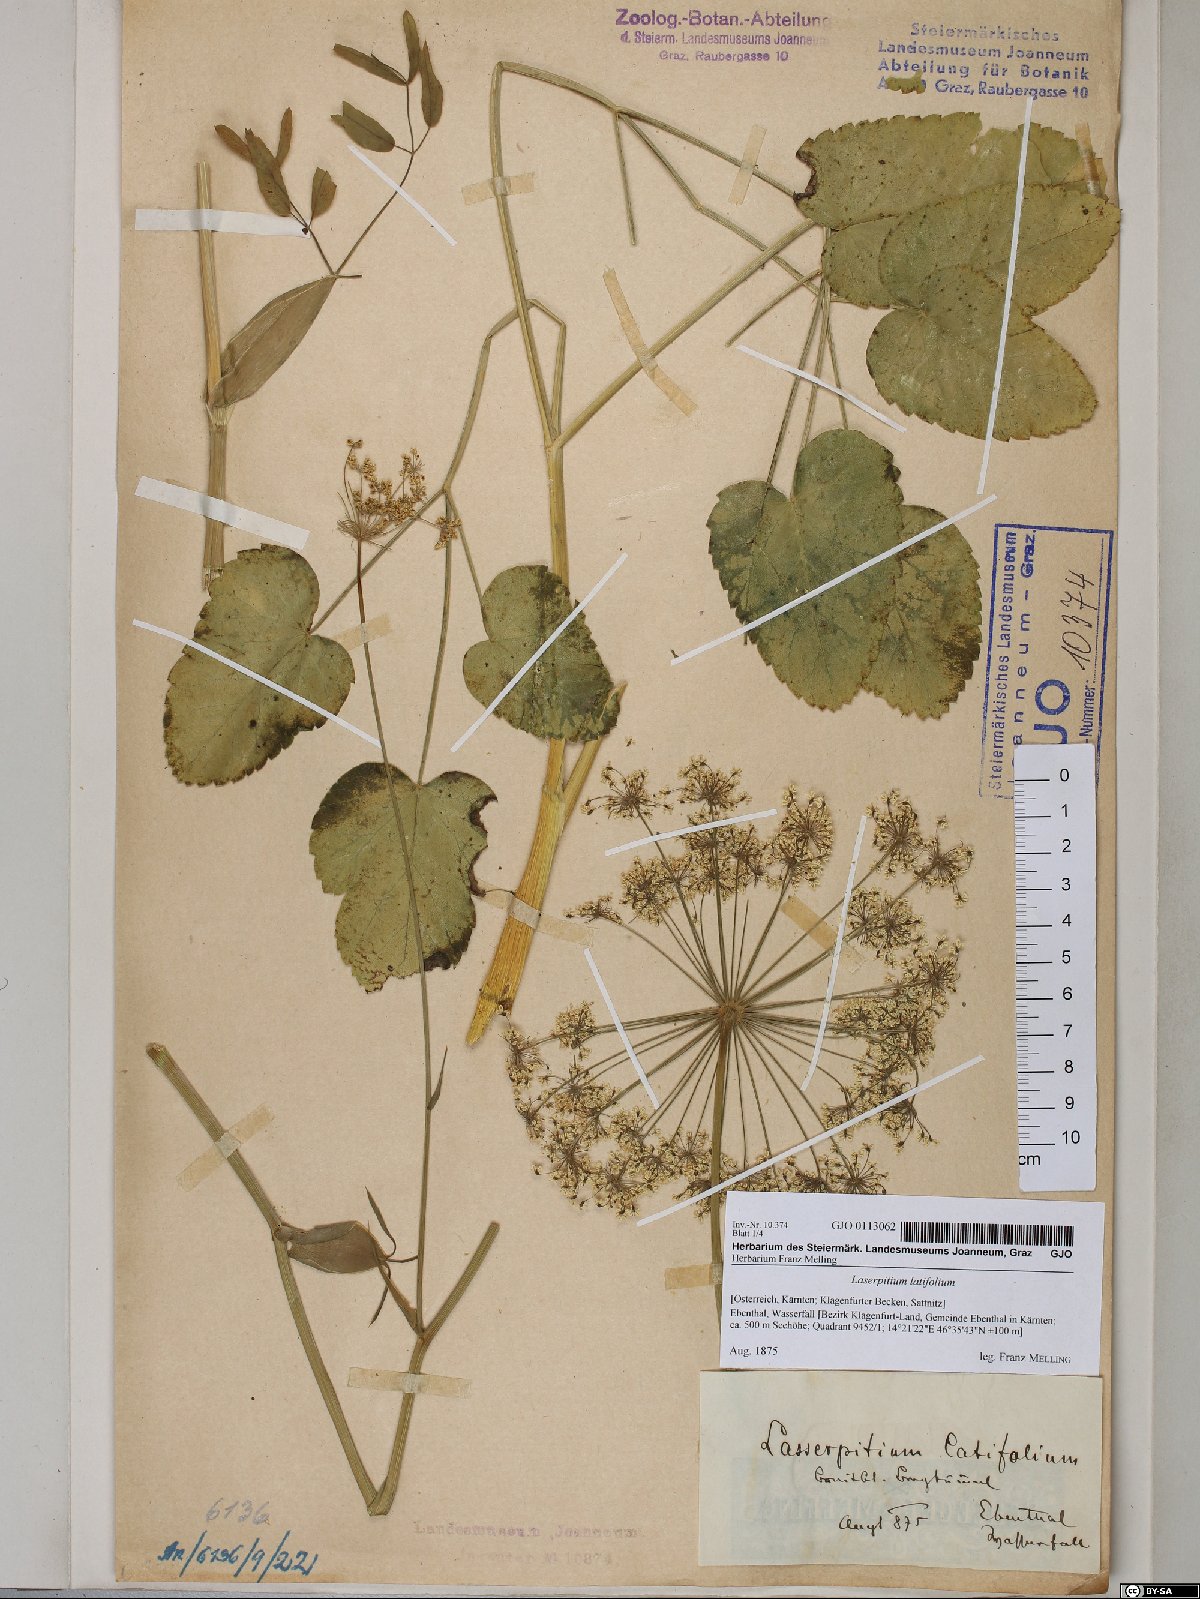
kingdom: Plantae
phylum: Tracheophyta
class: Magnoliopsida
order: Apiales
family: Apiaceae
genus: Laserpitium
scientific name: Laserpitium latifolium
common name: Broadleaf sermountain
